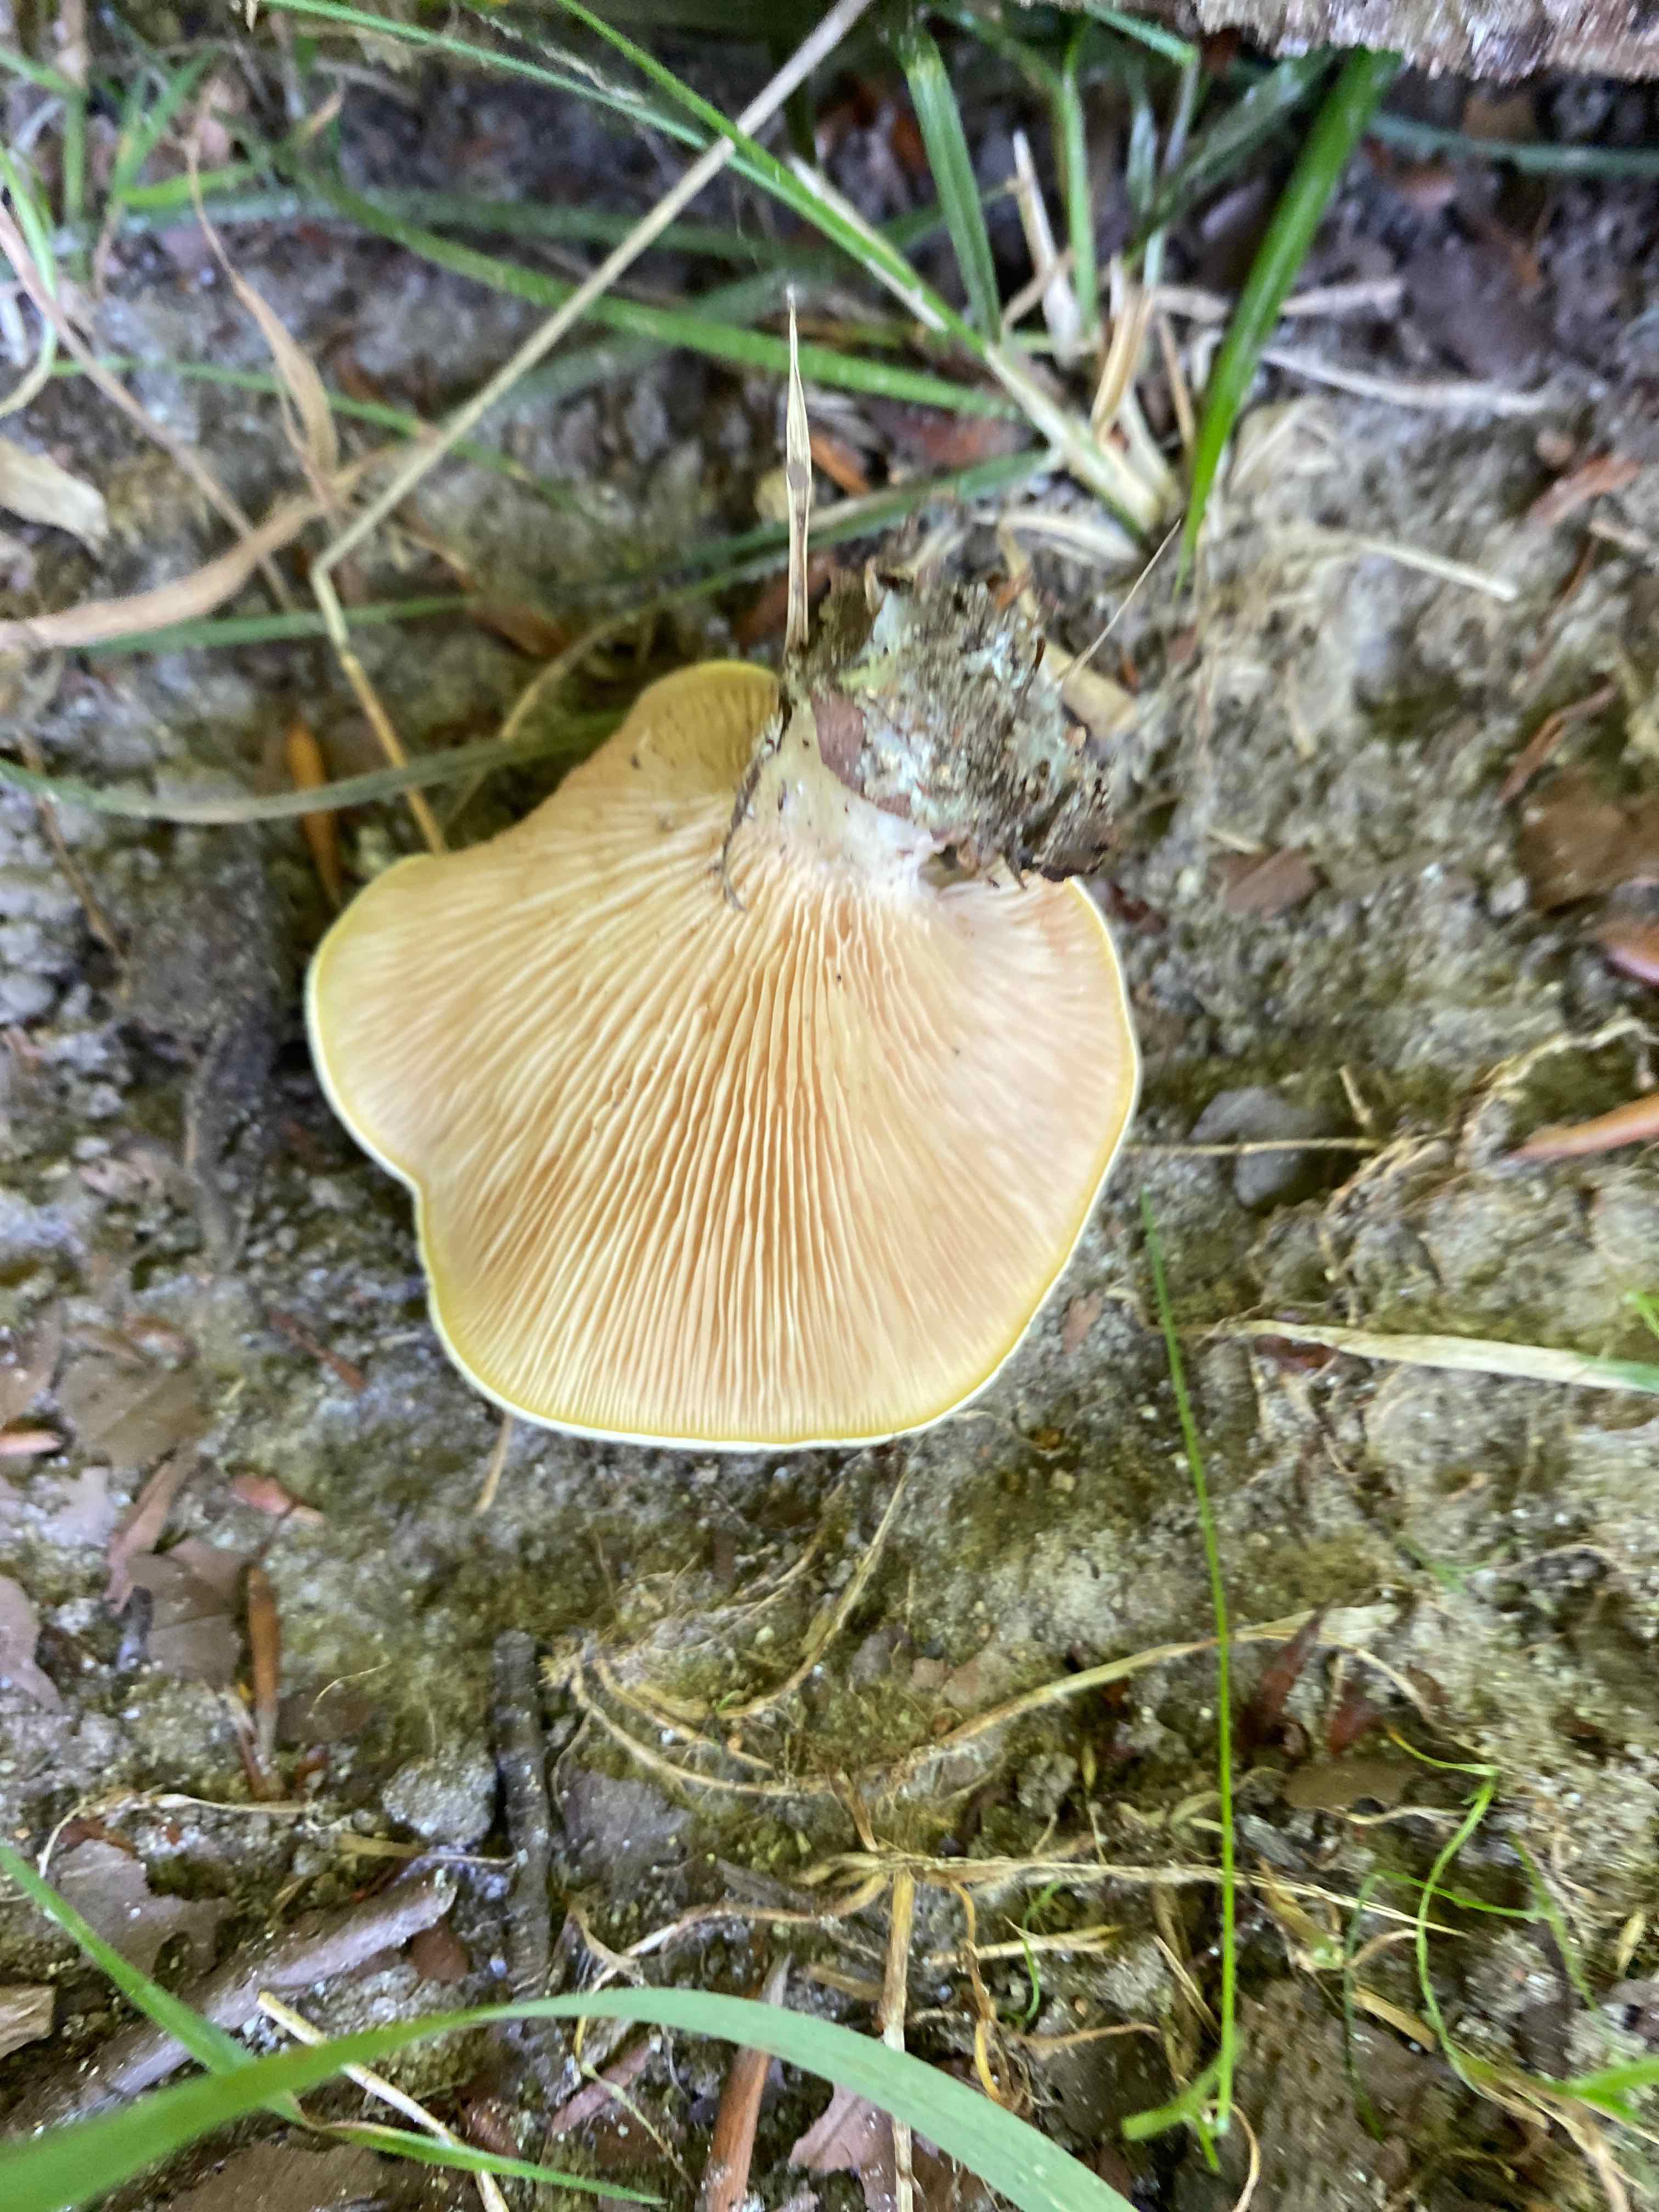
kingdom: Fungi
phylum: Basidiomycota
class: Agaricomycetes
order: Agaricales
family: Entolomataceae
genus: Clitopilus
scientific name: Clitopilus prunulus
